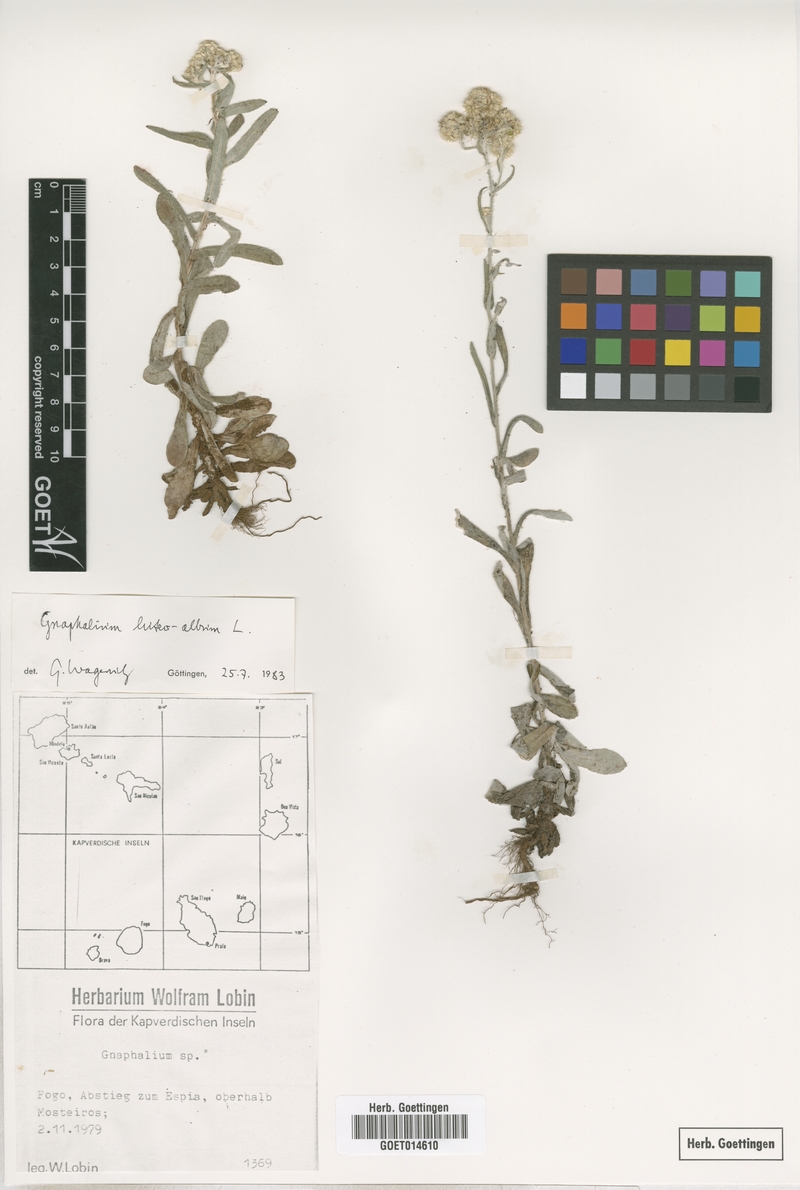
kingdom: Plantae
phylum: Tracheophyta
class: Magnoliopsida
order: Asterales
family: Asteraceae
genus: Helichrysum
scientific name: Helichrysum luteoalbum
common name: Daisy
